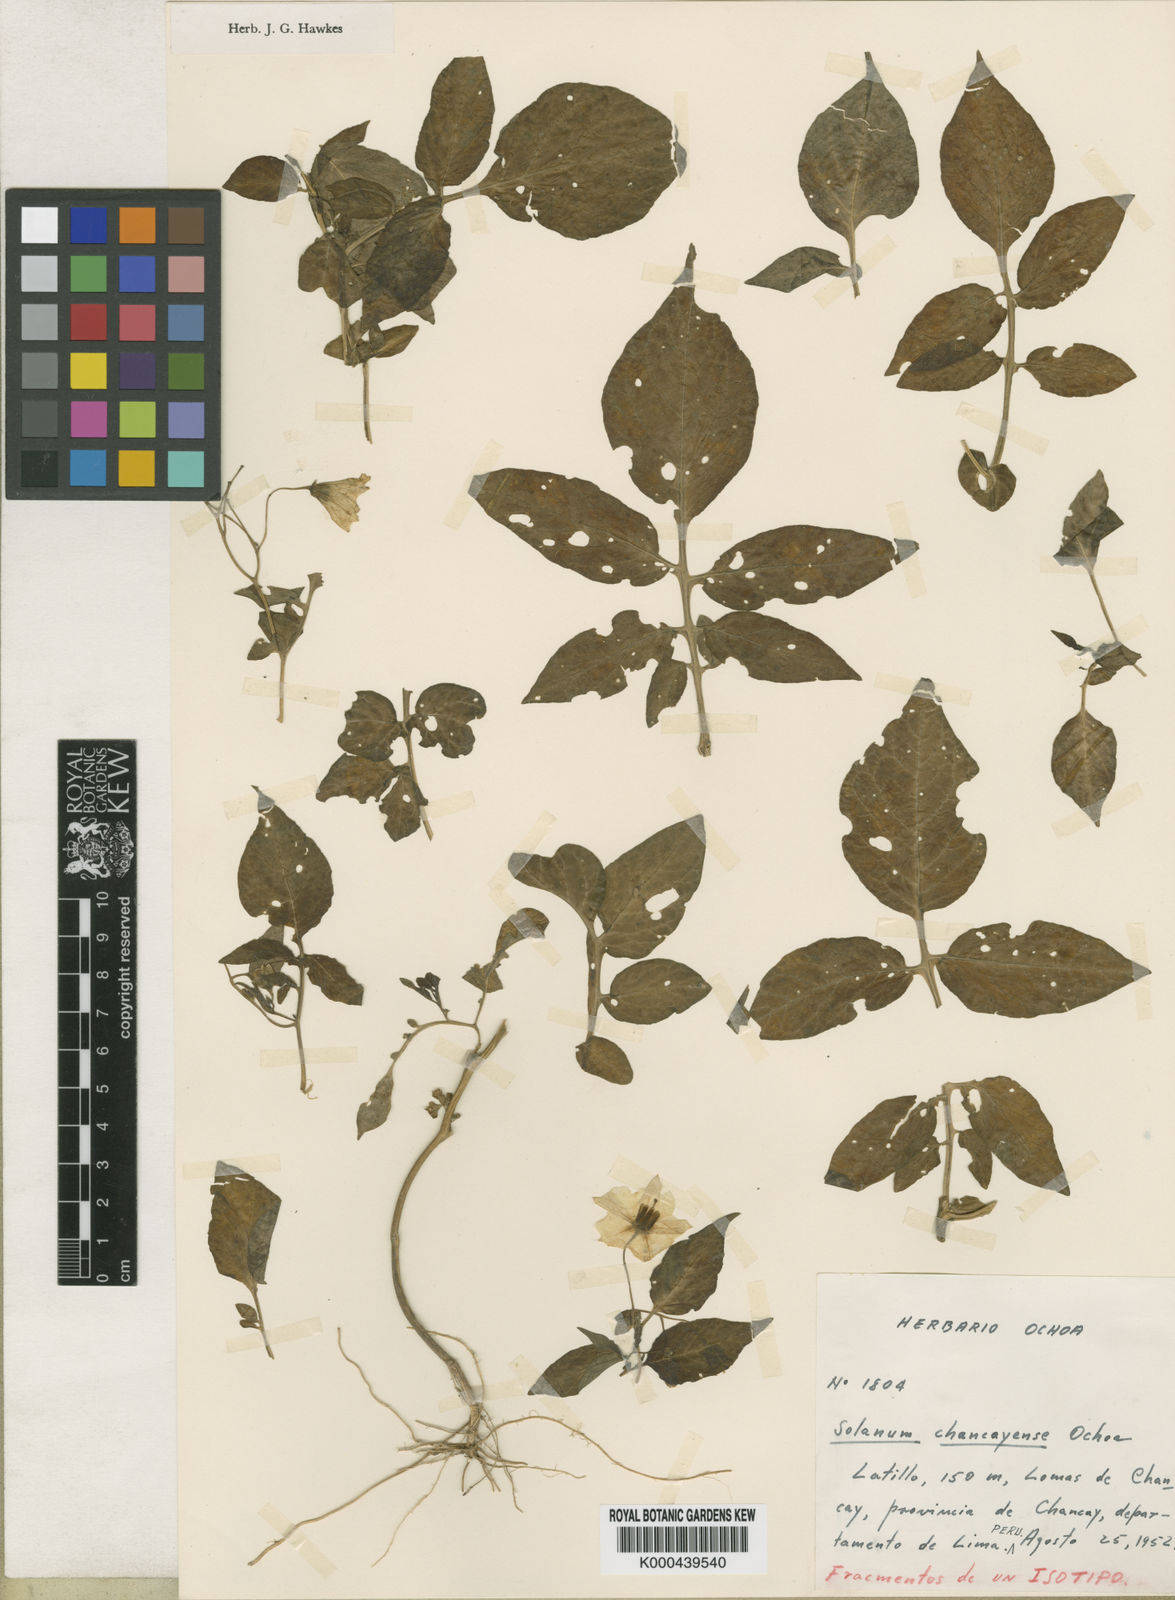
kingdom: Plantae
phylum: Tracheophyta
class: Magnoliopsida
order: Solanales
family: Solanaceae
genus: Solanum
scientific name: Solanum mochiquense
